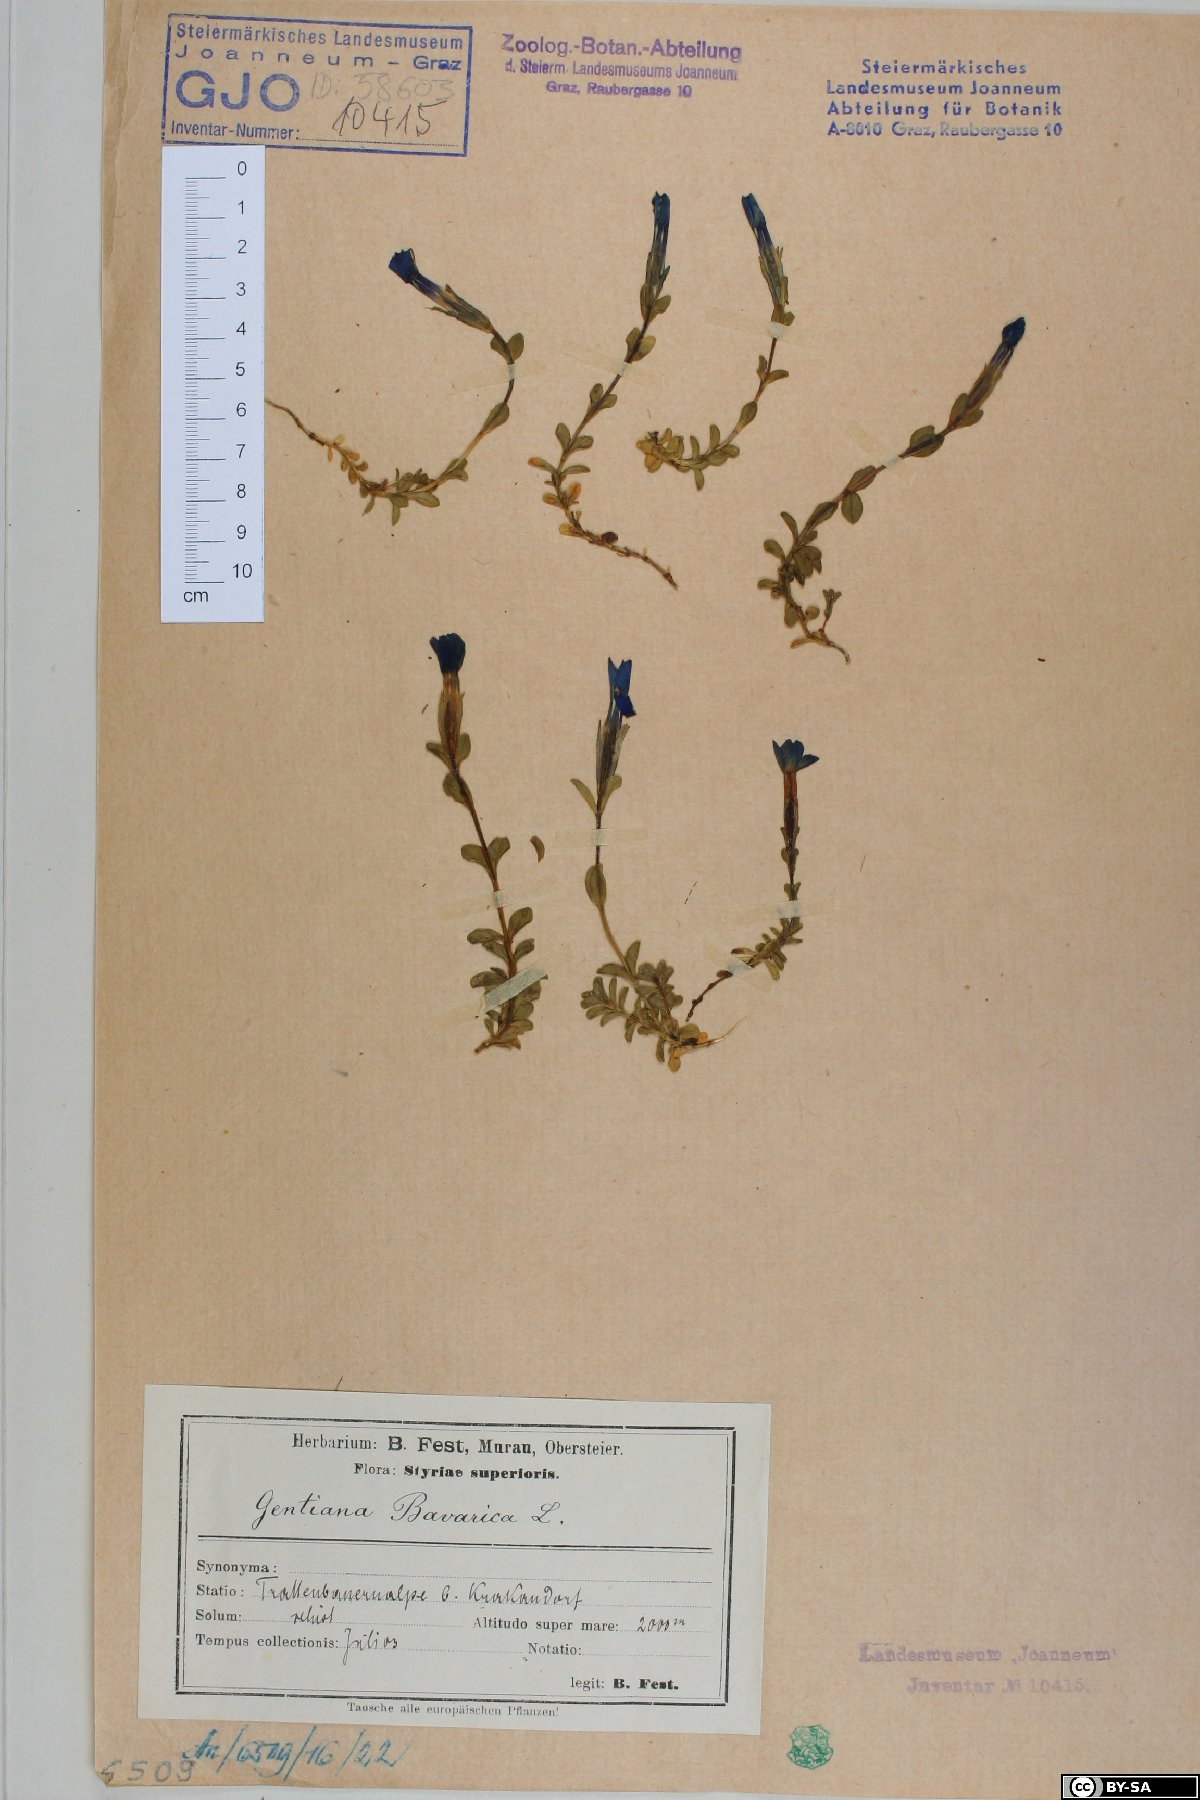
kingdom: Plantae
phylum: Tracheophyta
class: Magnoliopsida
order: Gentianales
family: Gentianaceae
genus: Gentiana
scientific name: Gentiana bavarica
